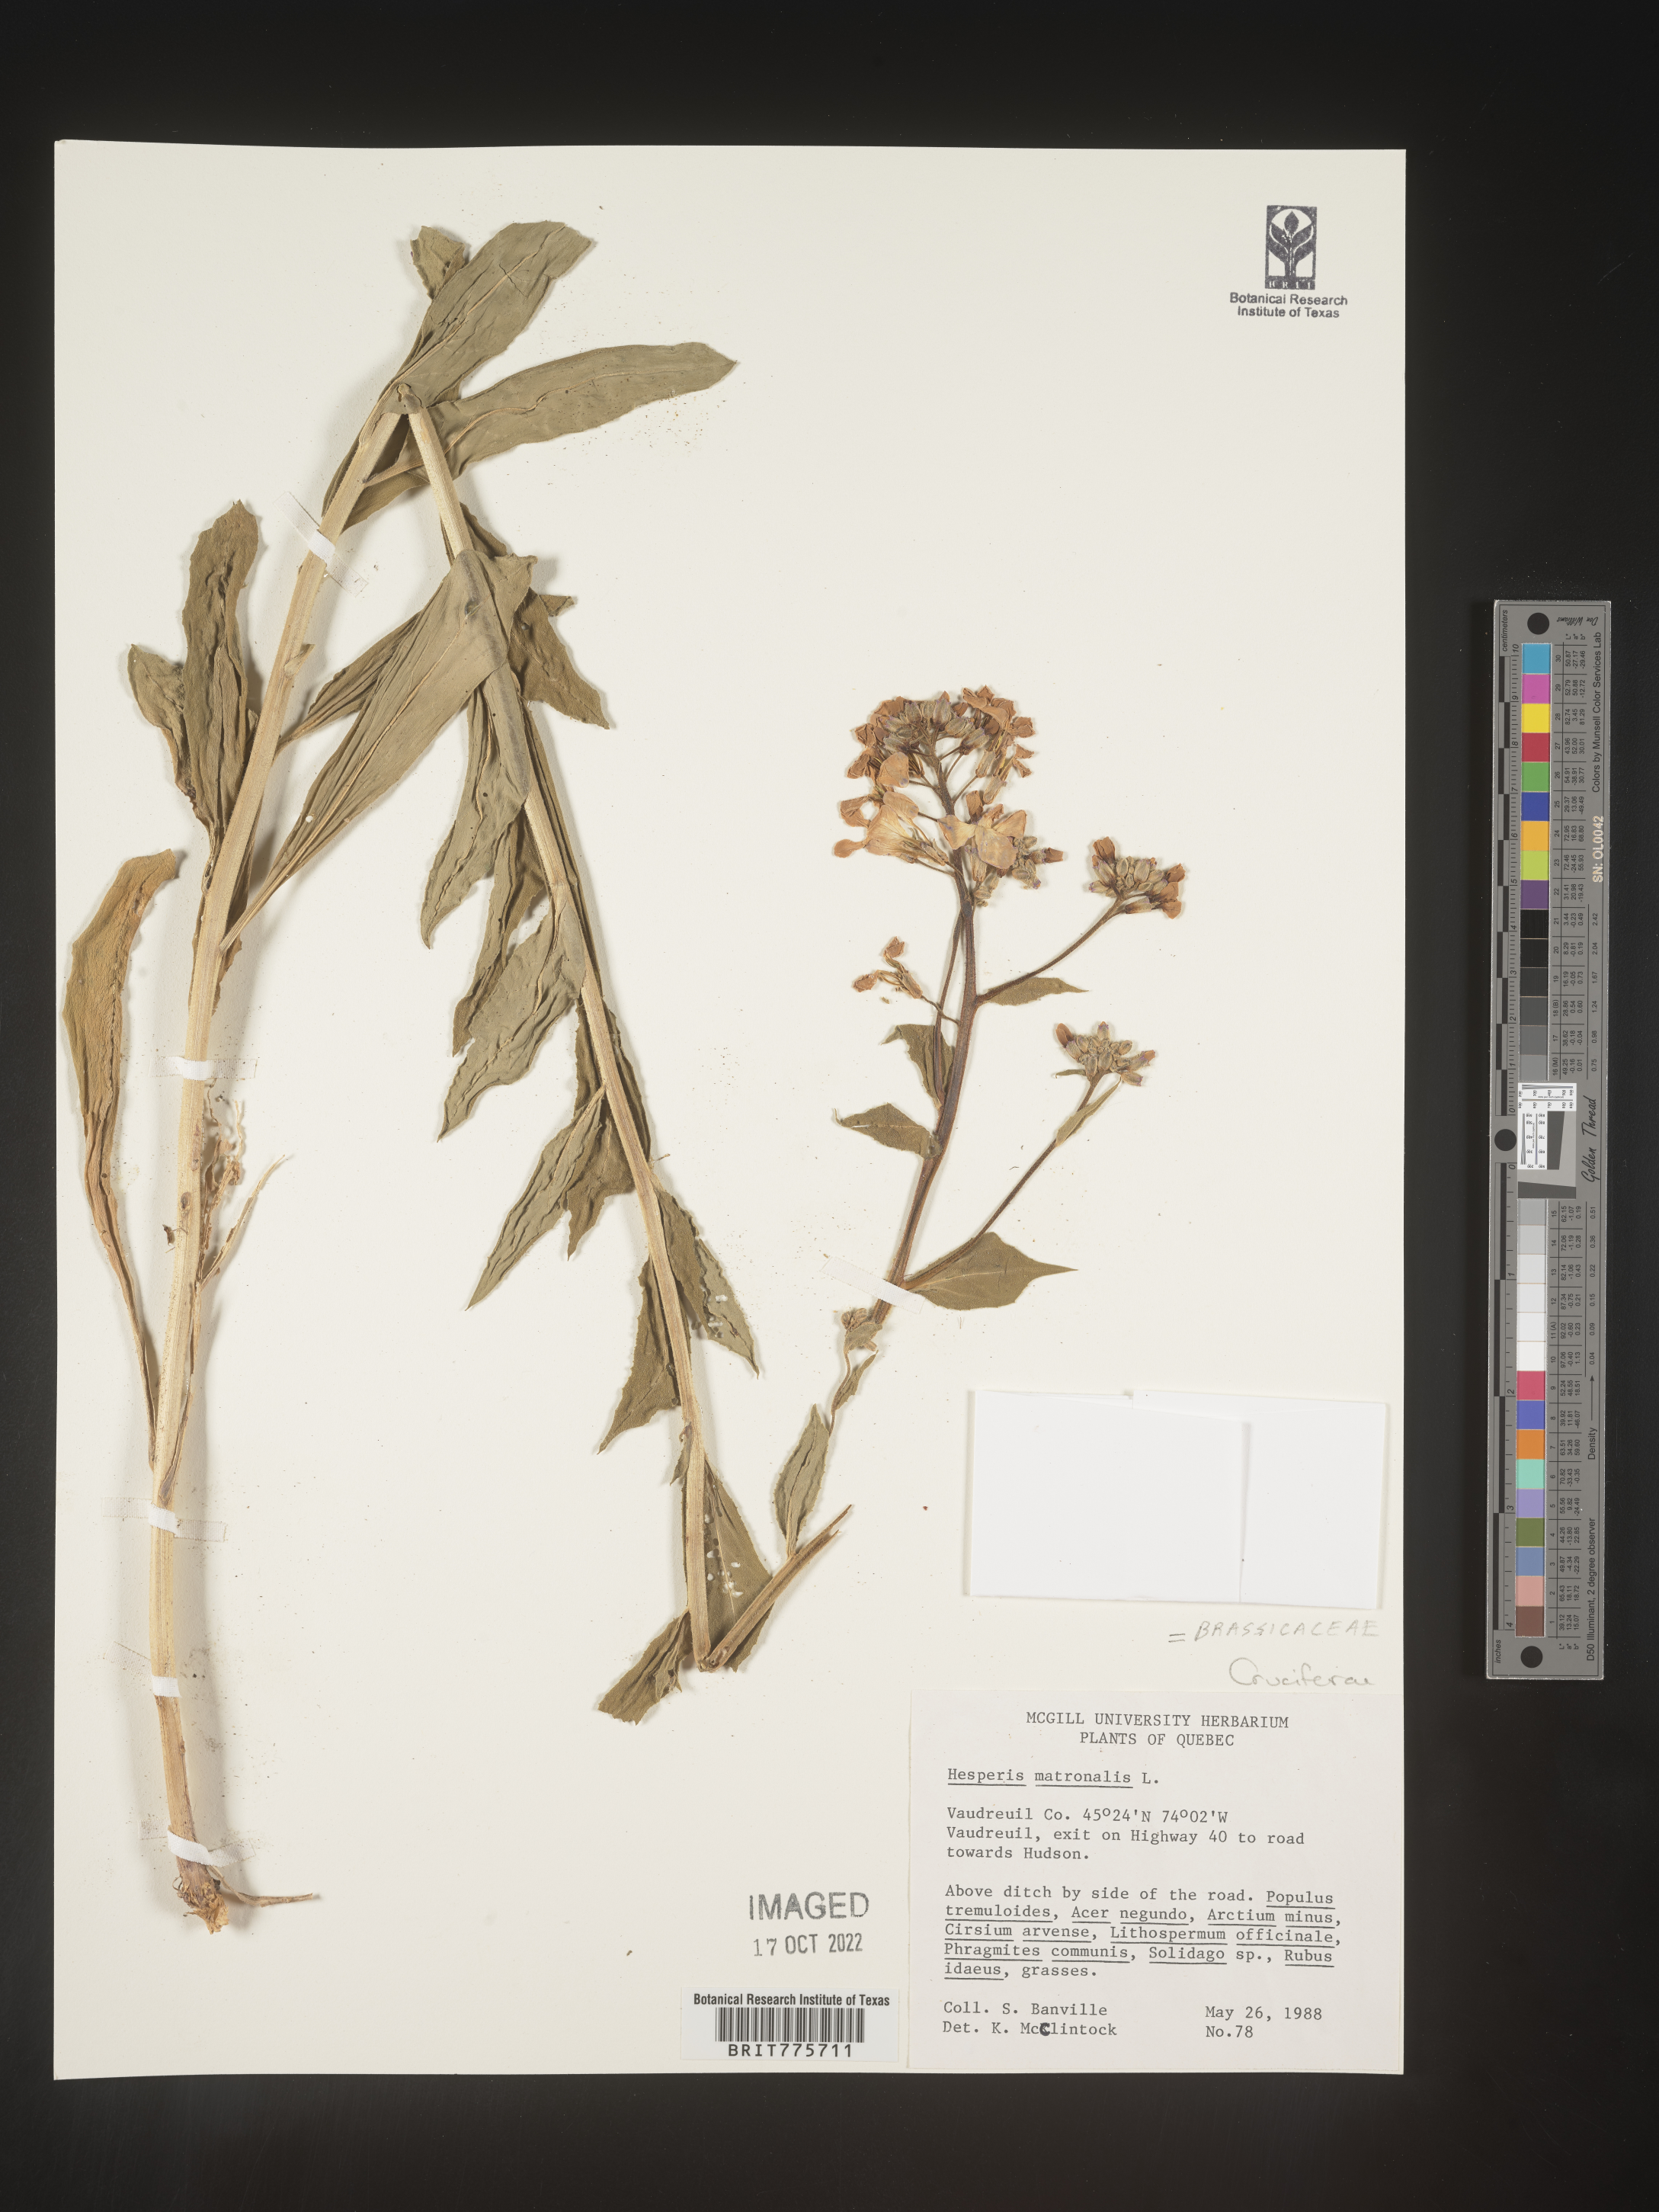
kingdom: Plantae
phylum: Tracheophyta
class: Magnoliopsida
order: Brassicales
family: Brassicaceae
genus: Hesperis
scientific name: Hesperis matronalis
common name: Dame's-violet
